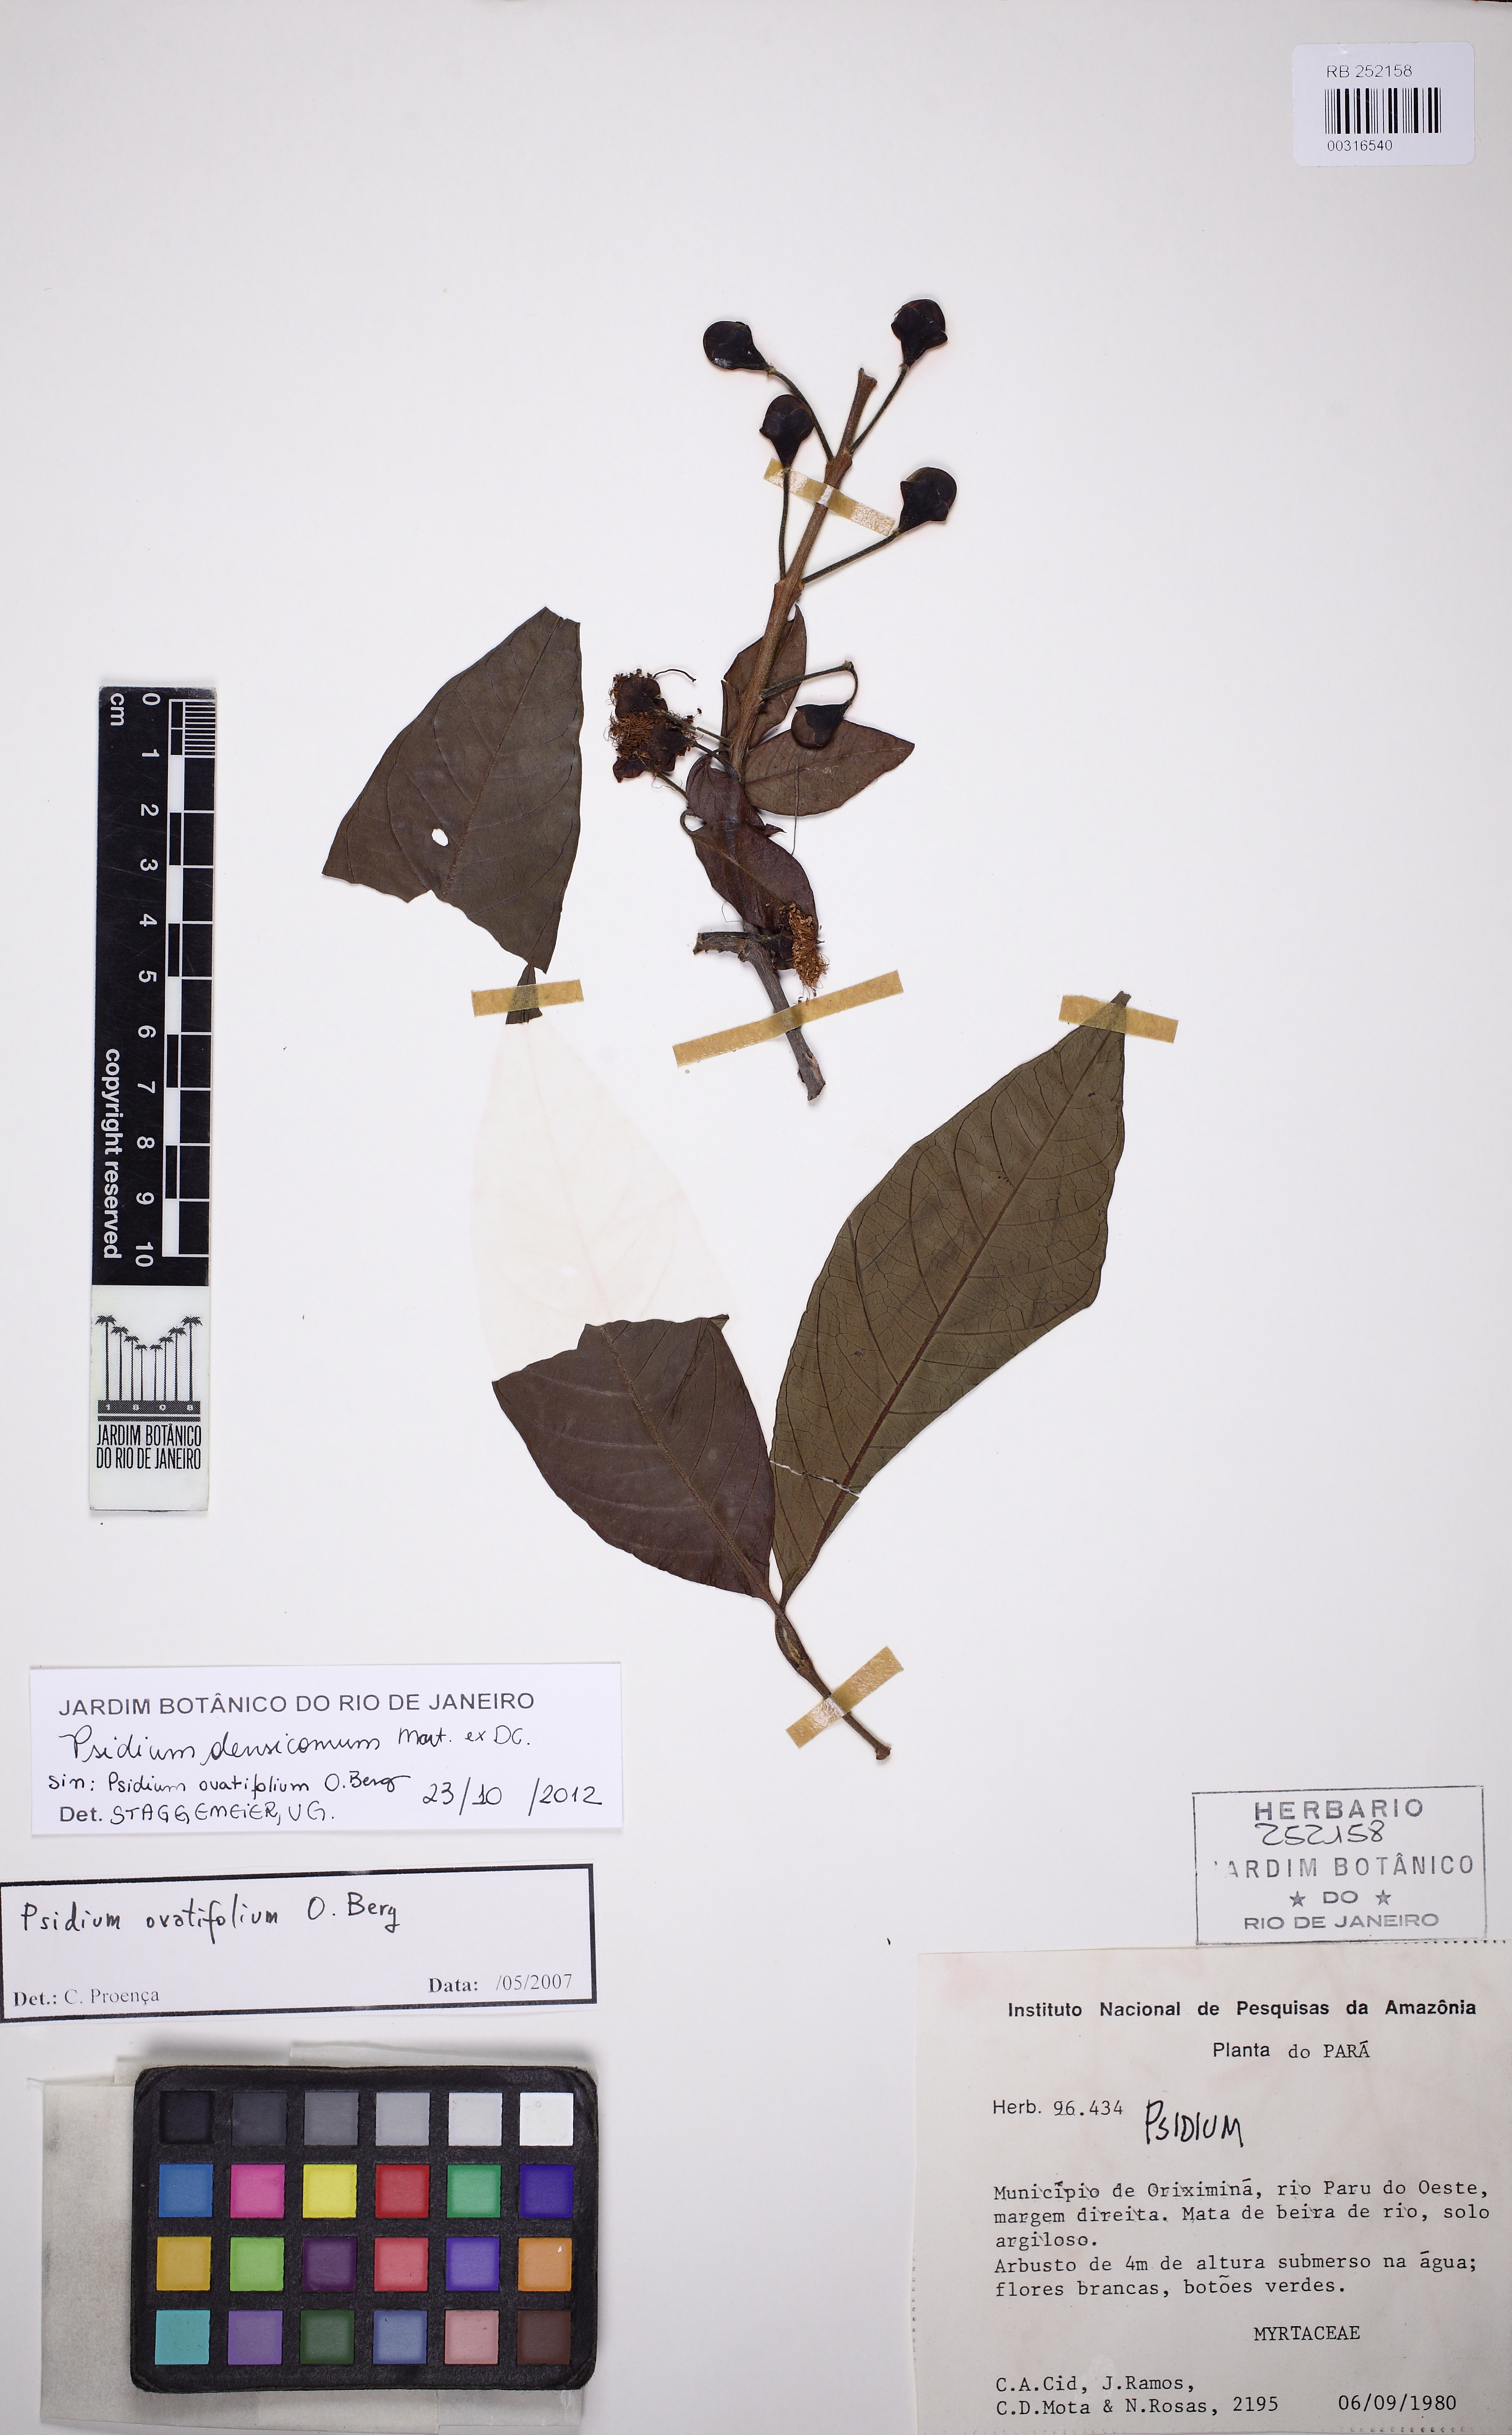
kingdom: Plantae
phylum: Tracheophyta
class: Magnoliopsida
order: Myrtales
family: Myrtaceae
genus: Psidium
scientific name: Psidium densicomum
